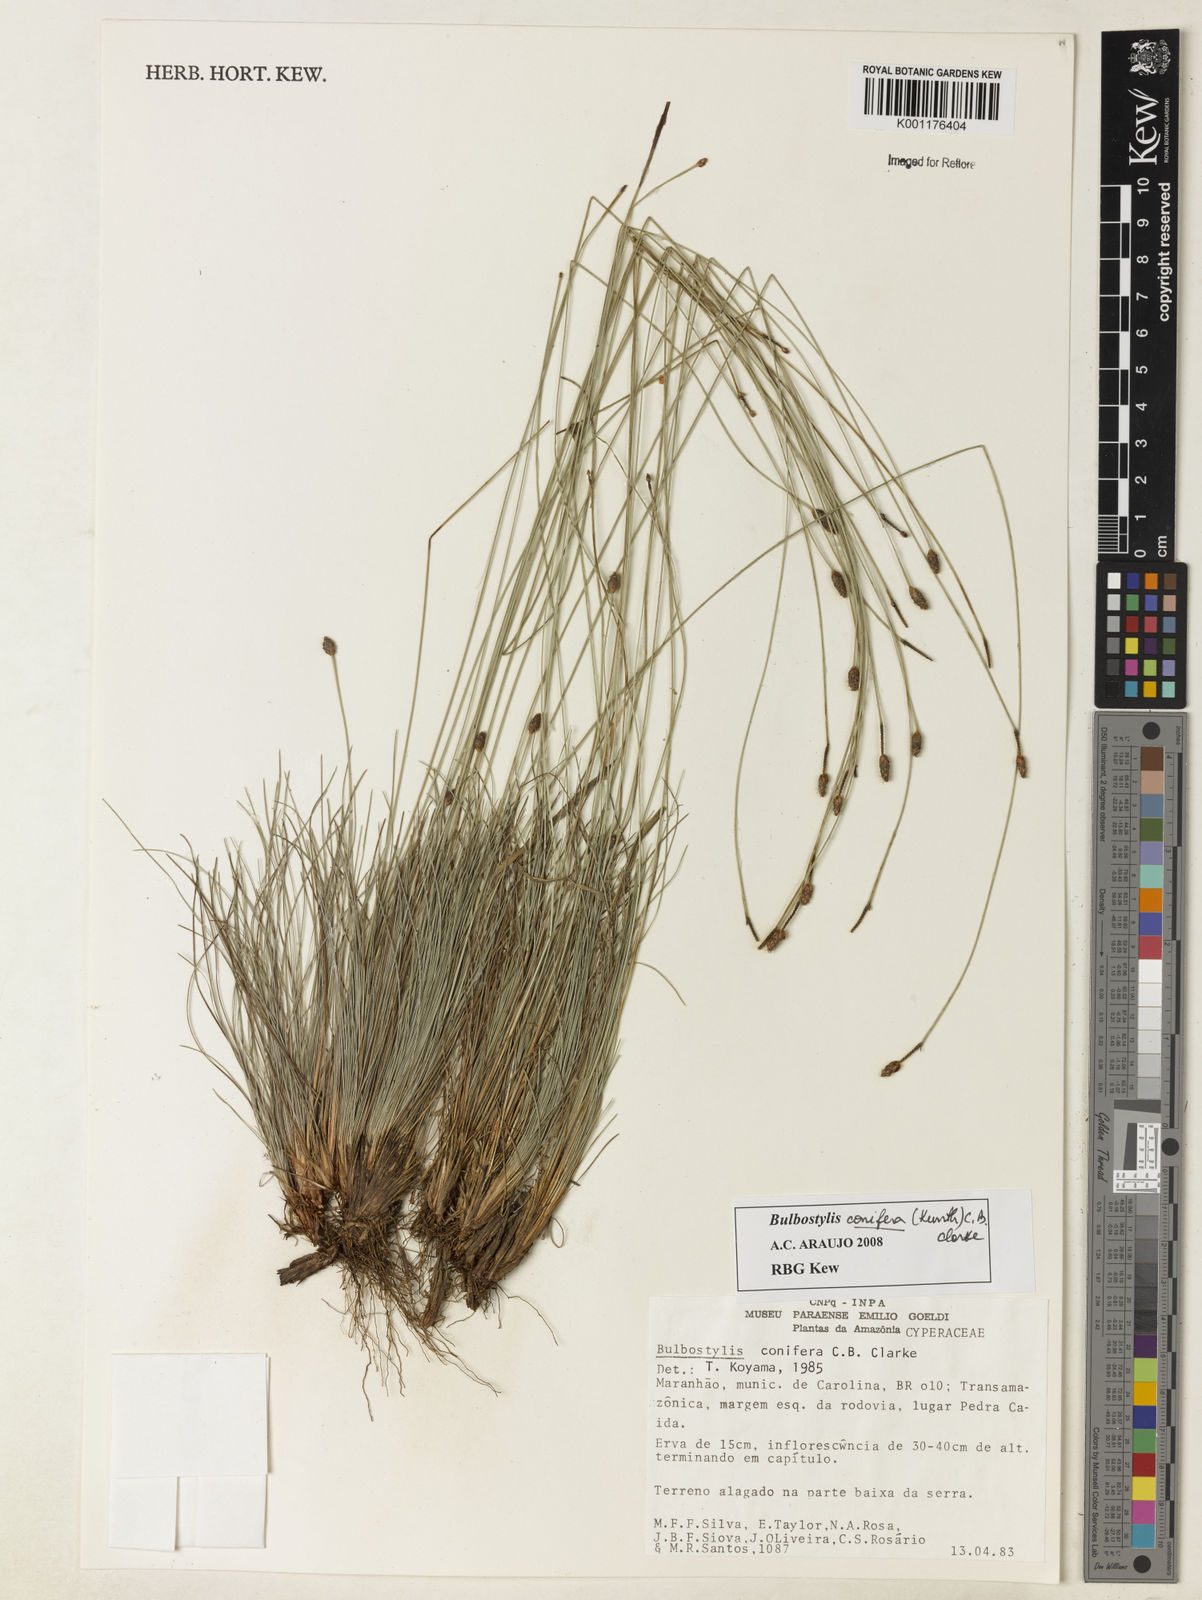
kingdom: Plantae
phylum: Tracheophyta
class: Liliopsida
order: Poales
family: Cyperaceae
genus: Bulbostylis
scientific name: Bulbostylis conifera
